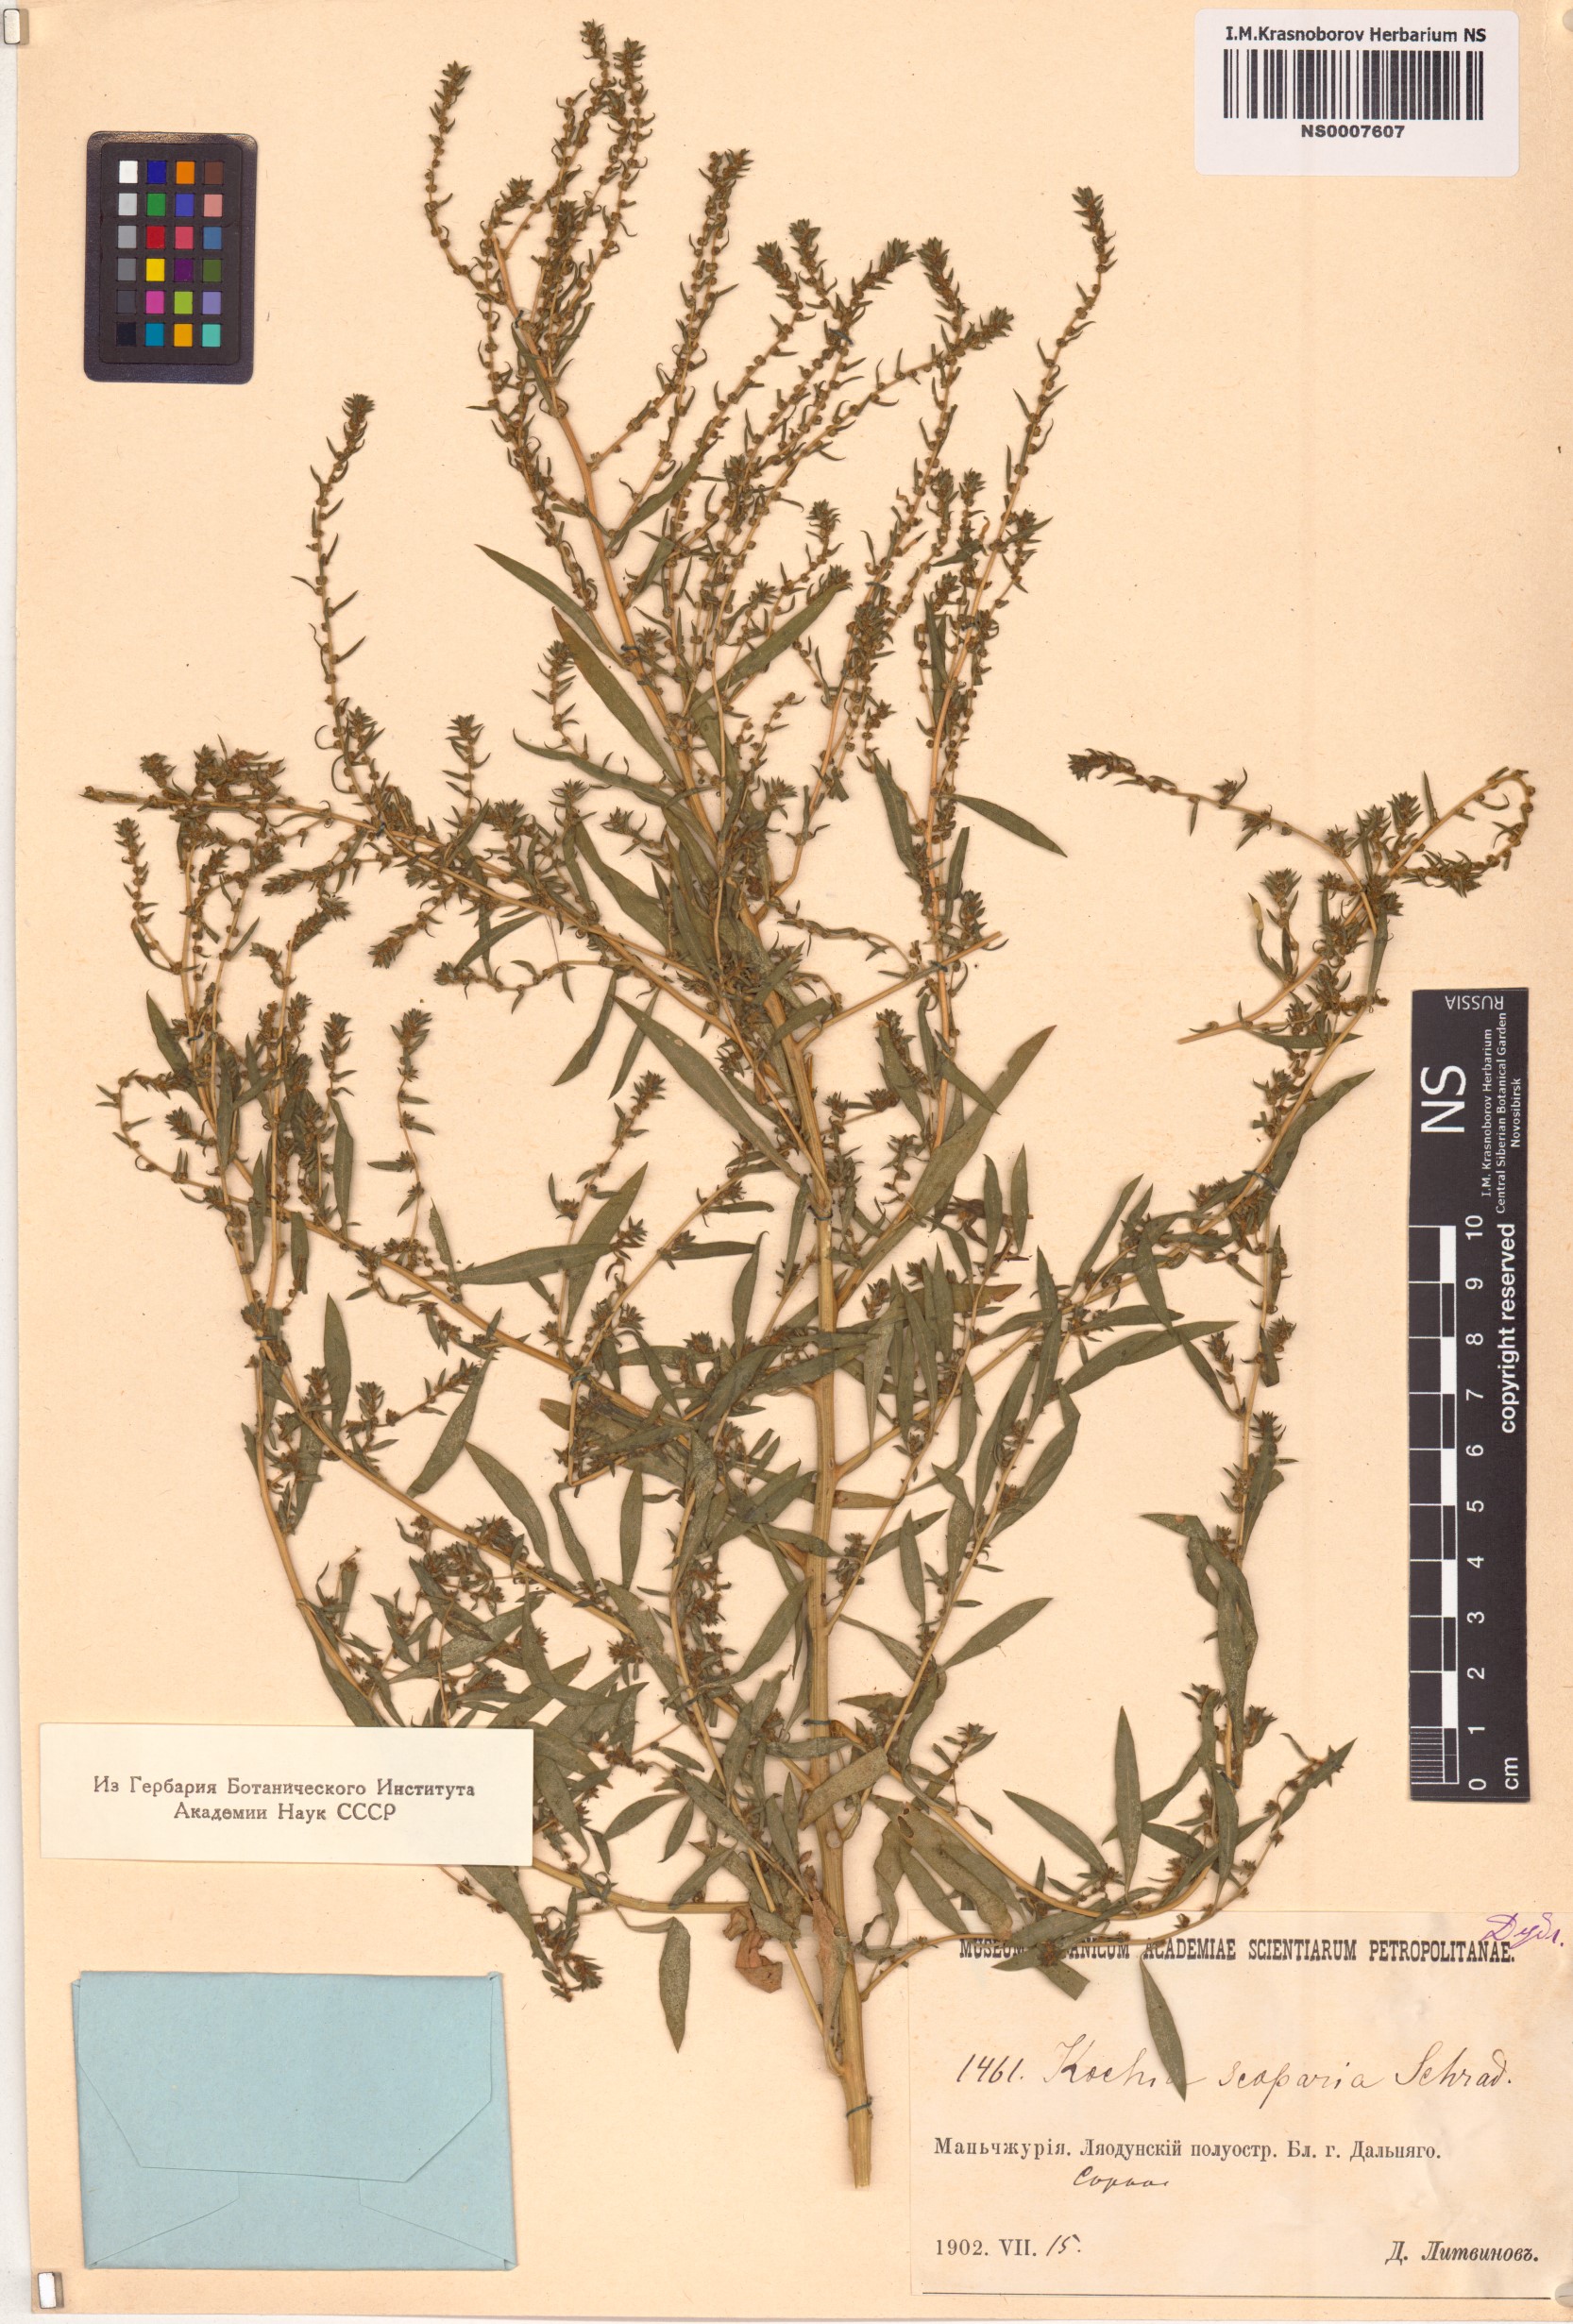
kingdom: Plantae
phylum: Tracheophyta
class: Magnoliopsida
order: Caryophyllales
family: Amaranthaceae
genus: Bassia
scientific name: Bassia scoparia
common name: Belvedere
